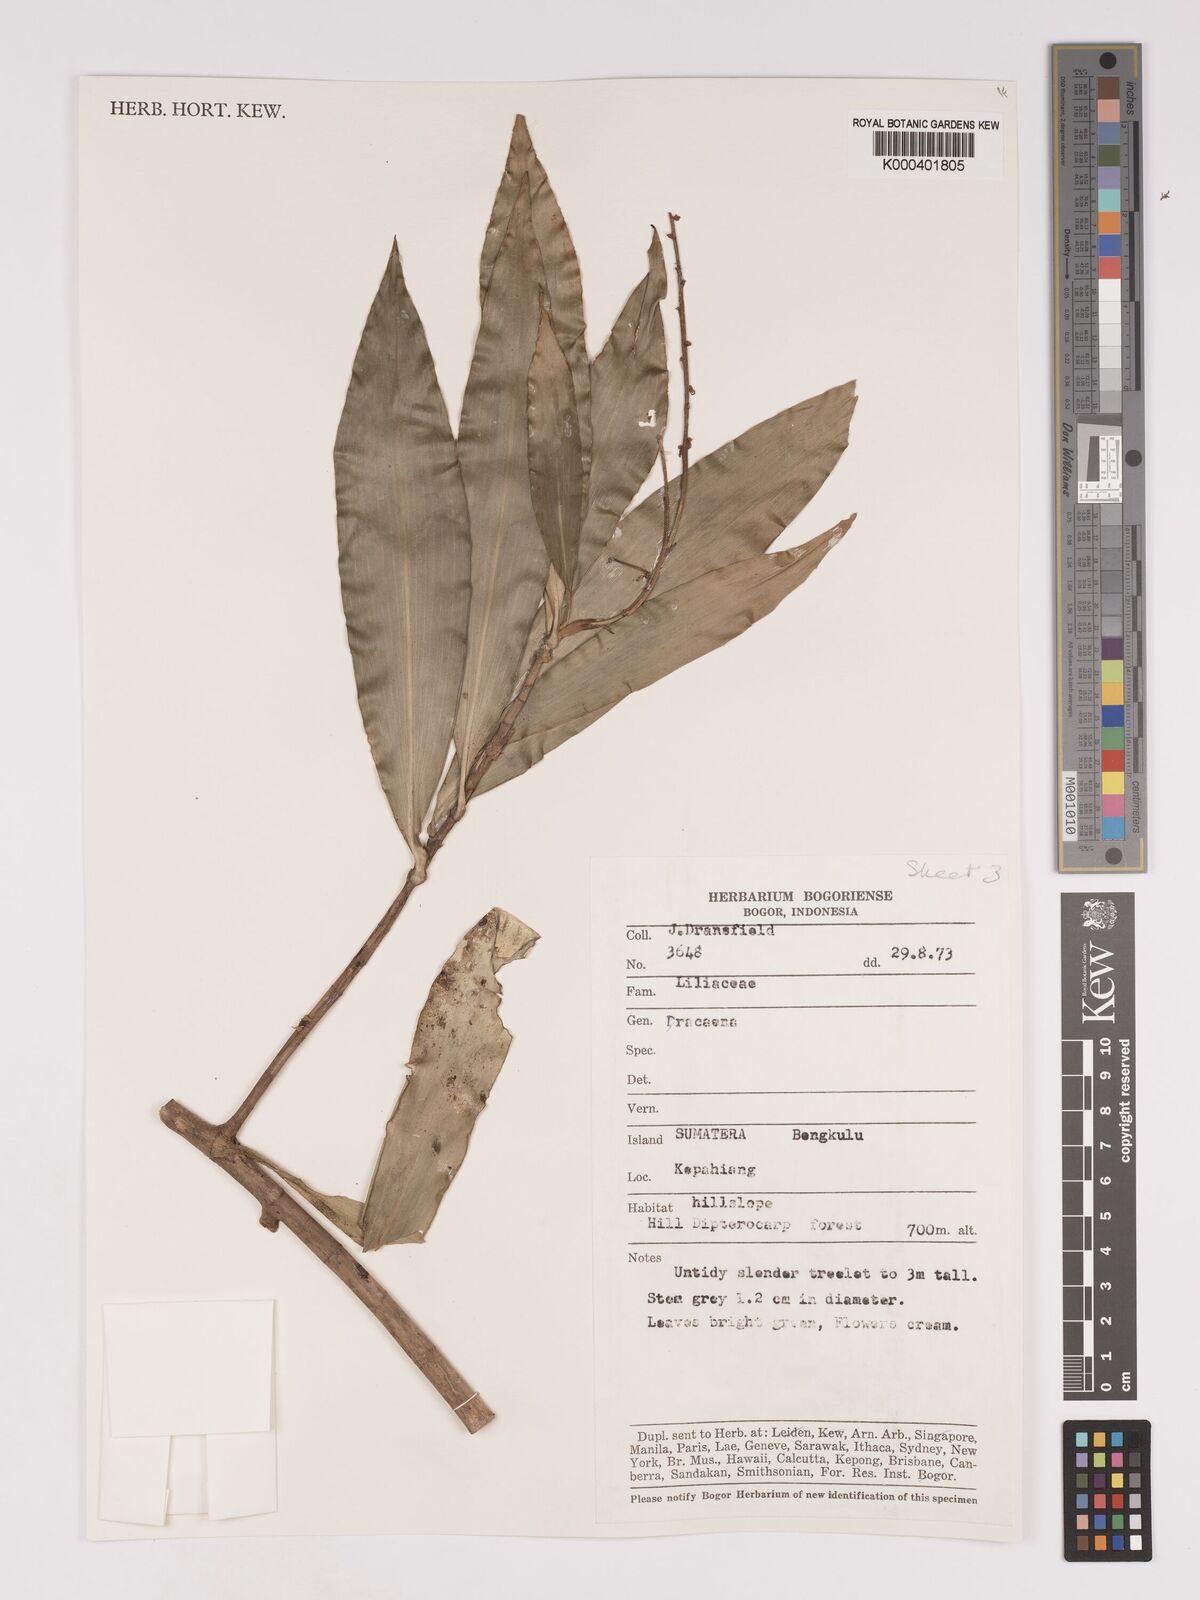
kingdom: Plantae
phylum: Tracheophyta
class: Liliopsida
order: Asparagales
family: Asparagaceae
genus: Dracaena
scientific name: Dracaena
